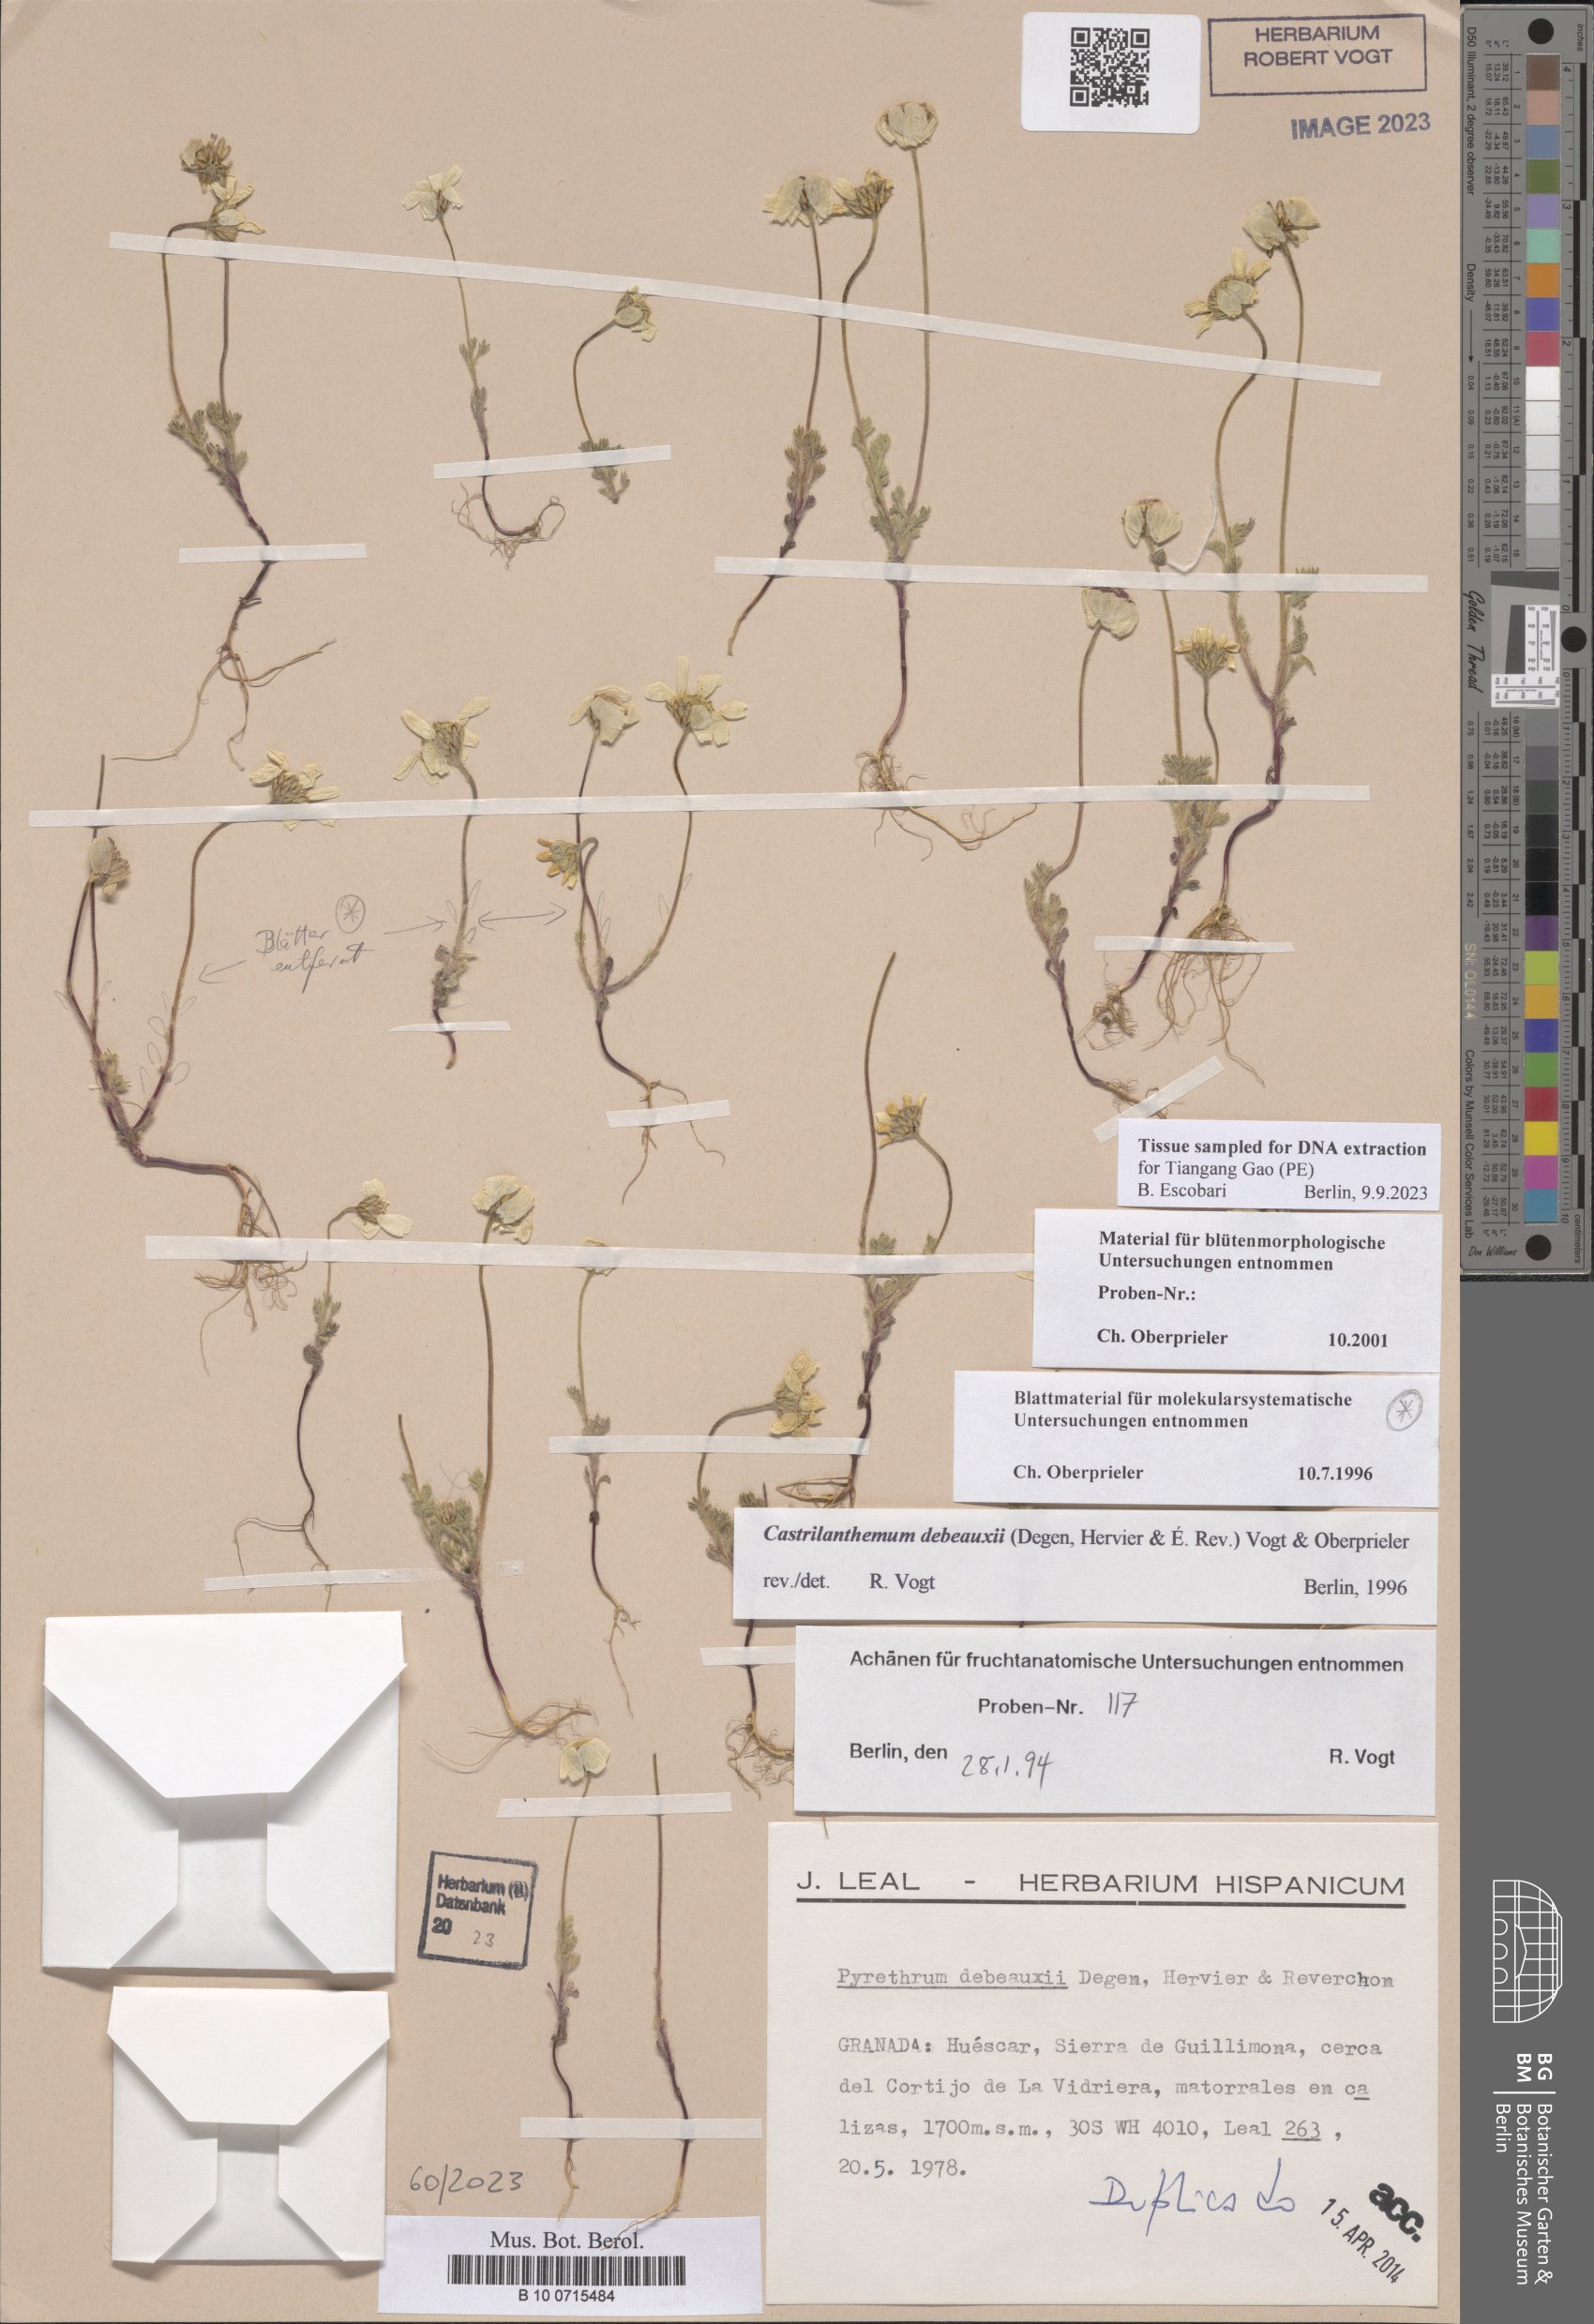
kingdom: Plantae
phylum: Tracheophyta
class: Magnoliopsida
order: Asterales
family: Asteraceae
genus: Castrilanthemum
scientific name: Castrilanthemum debeauxii
